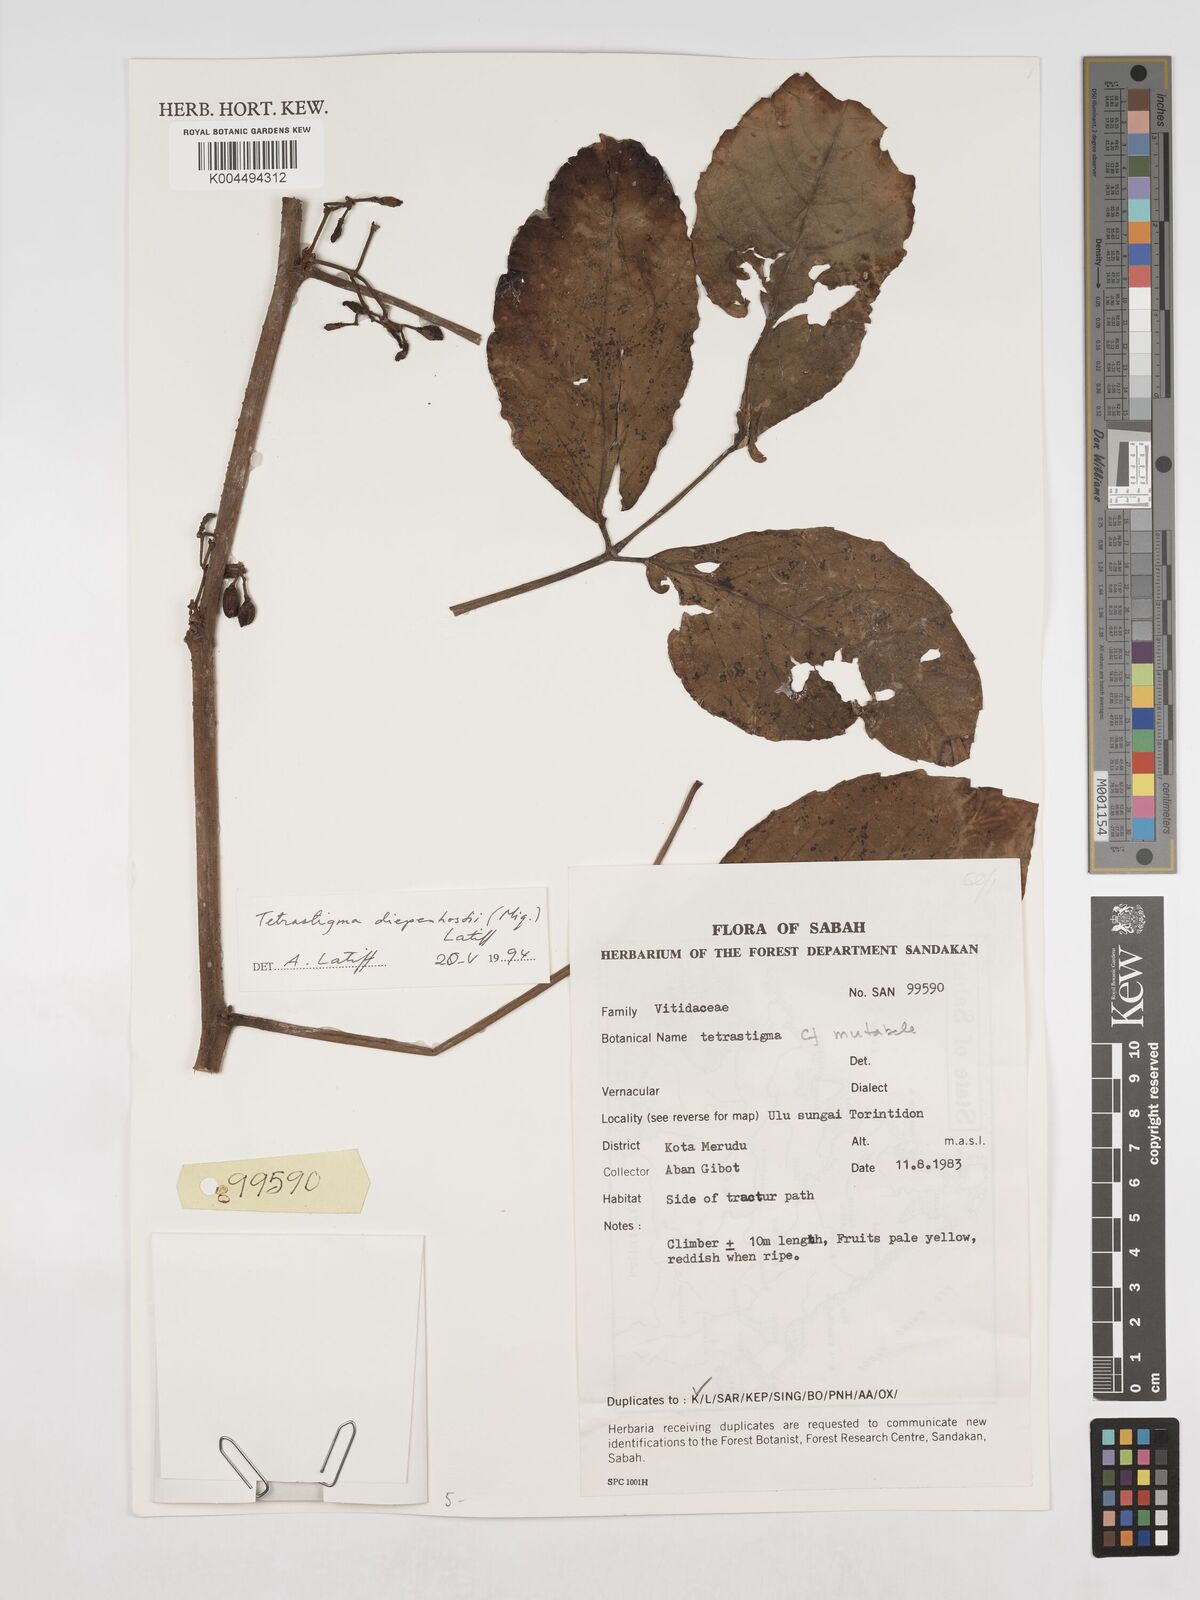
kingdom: Plantae
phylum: Tracheophyta
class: Magnoliopsida
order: Vitales
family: Vitaceae
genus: Tetrastigma
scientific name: Tetrastigma diepenhorstii
